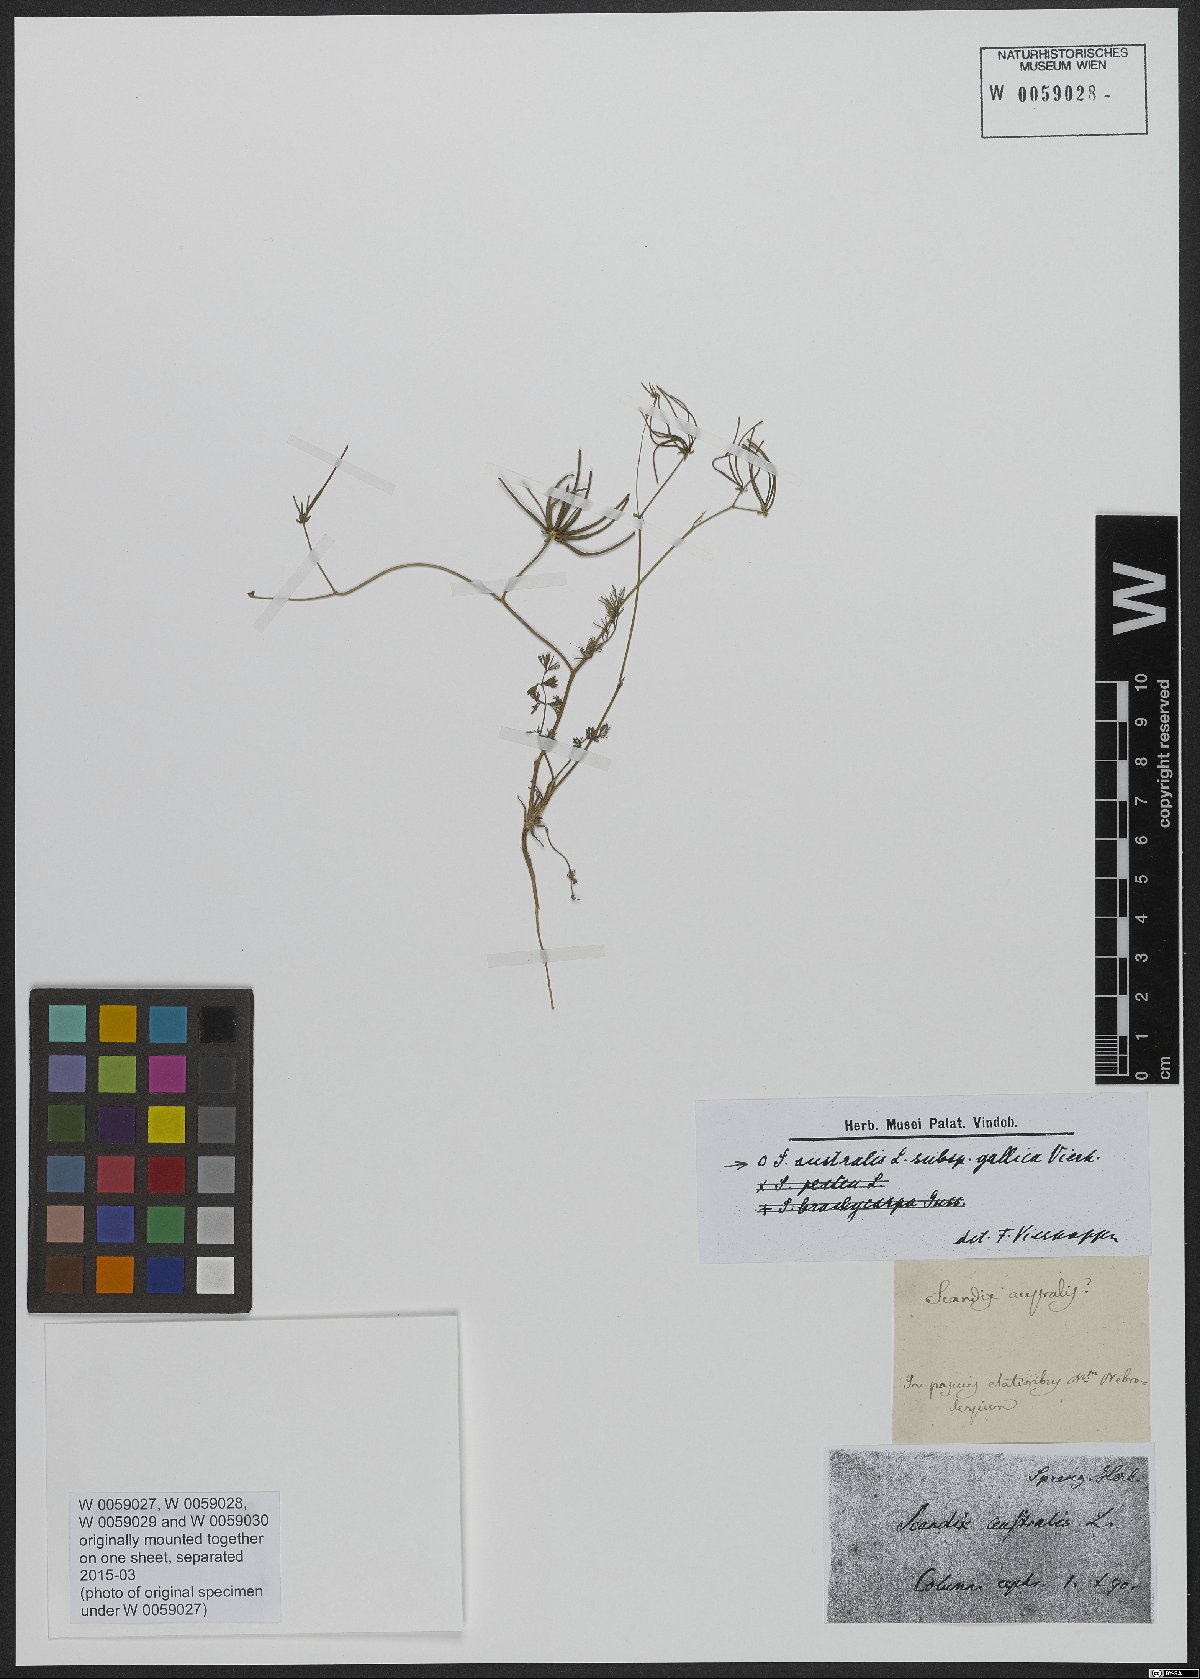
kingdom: Plantae
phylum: Tracheophyta
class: Magnoliopsida
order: Apiales
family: Apiaceae
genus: Scandix
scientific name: Scandix australis
